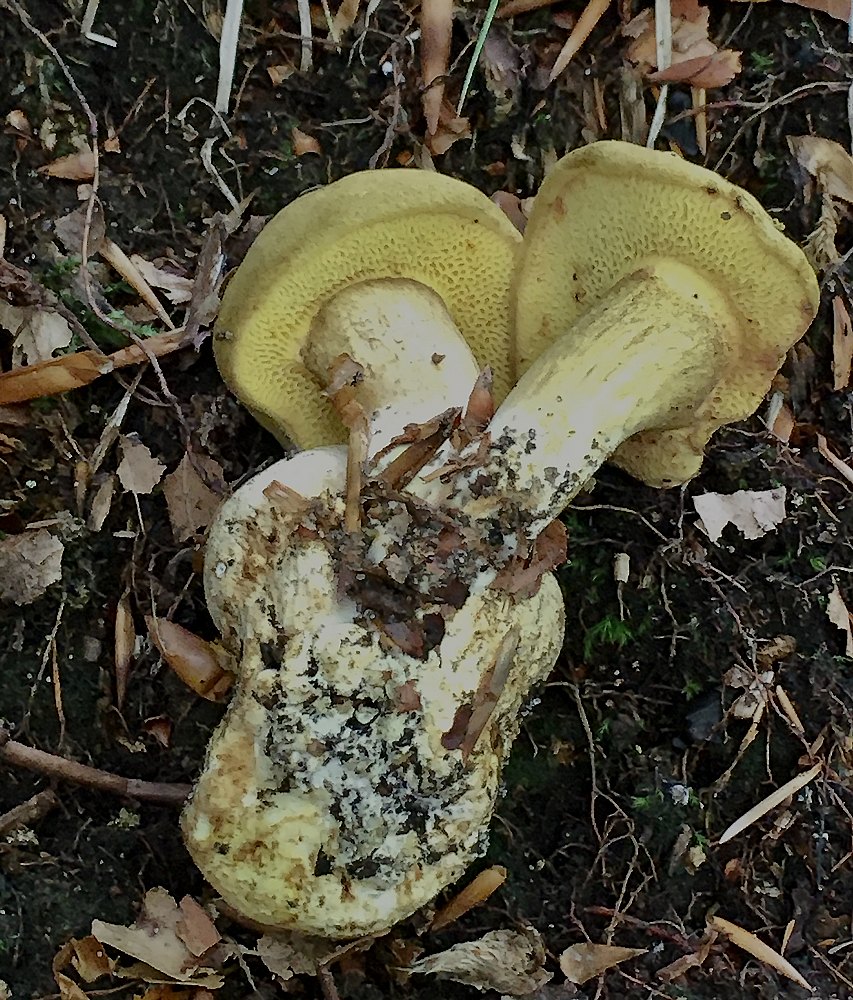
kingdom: Fungi
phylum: Basidiomycota
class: Agaricomycetes
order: Boletales
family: Boletaceae
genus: Pseudoboletus
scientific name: Pseudoboletus parasiticus
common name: snyltende rørhat
